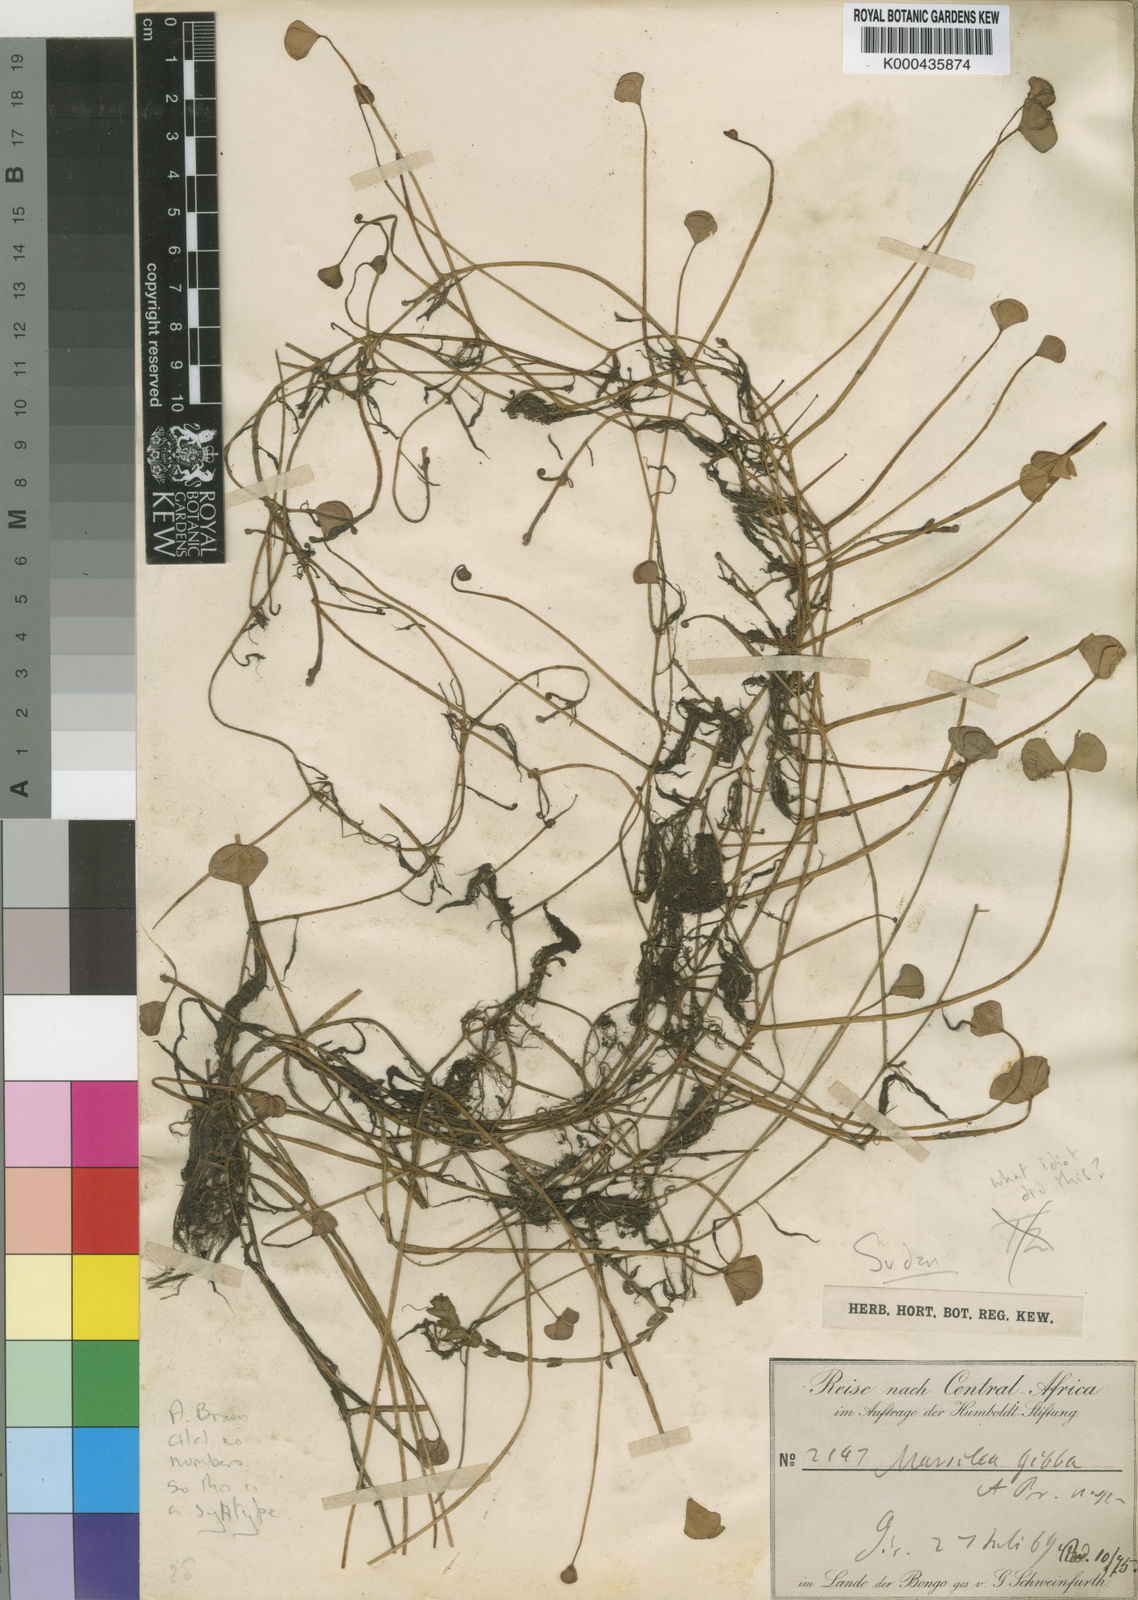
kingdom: Plantae
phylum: Tracheophyta
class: Polypodiopsida
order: Salviniales
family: Marsileaceae
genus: Marsilea
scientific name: Marsilea gibba
